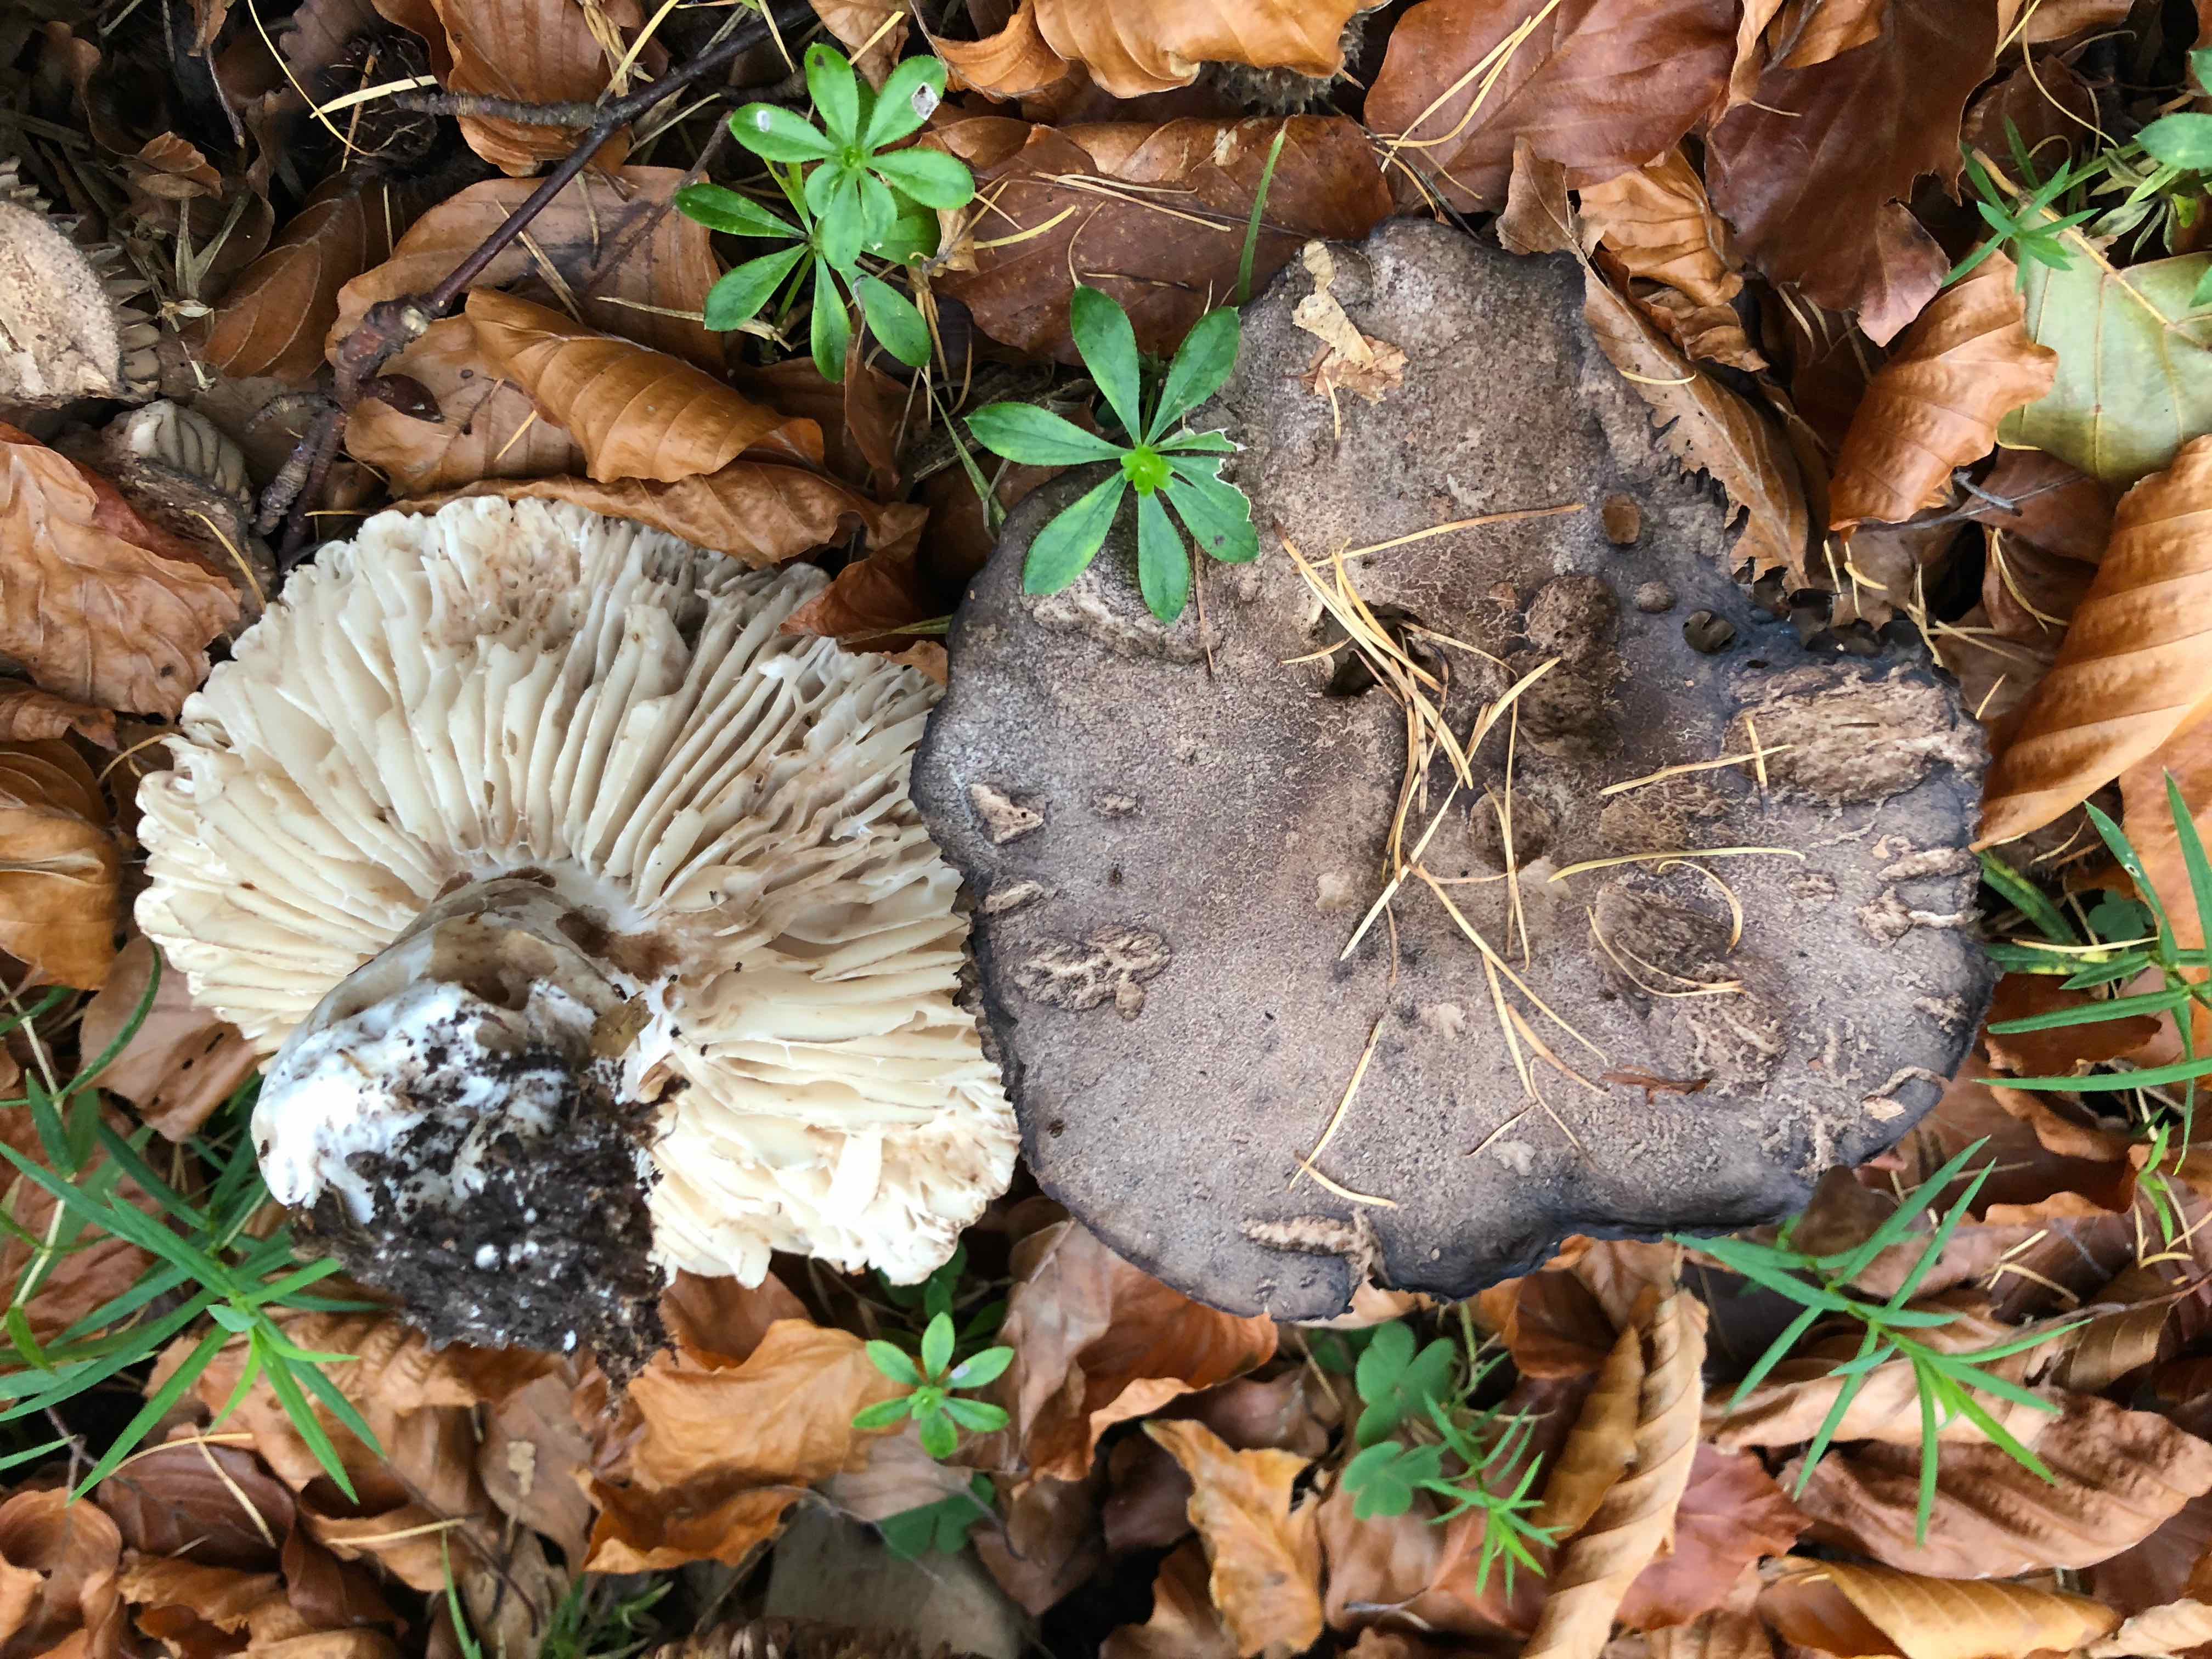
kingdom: Fungi
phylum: Basidiomycota
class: Agaricomycetes
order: Russulales
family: Russulaceae
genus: Russula
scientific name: Russula adusta
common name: sværtende skørhat
